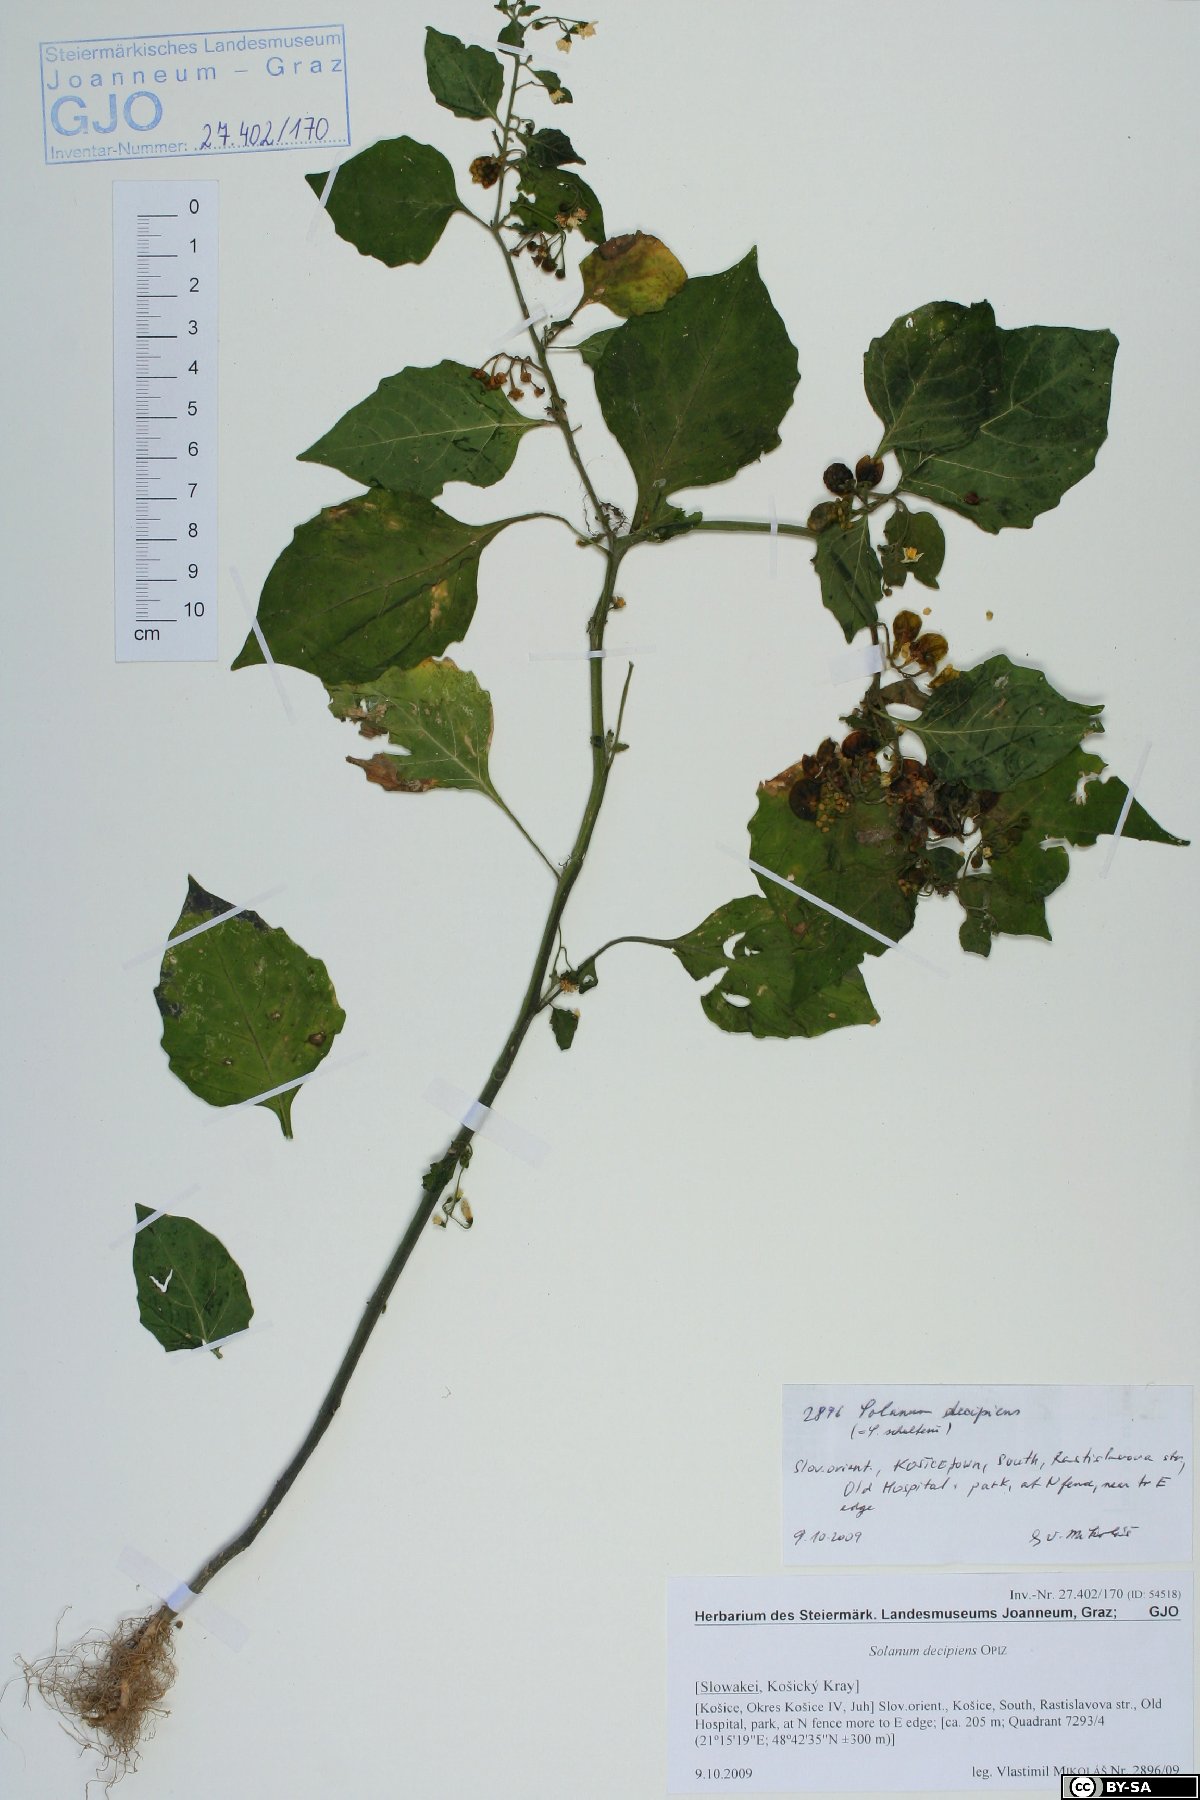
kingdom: Plantae
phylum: Tracheophyta
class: Magnoliopsida
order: Solanales
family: Solanaceae
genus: Solanum
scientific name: Solanum decipiens
